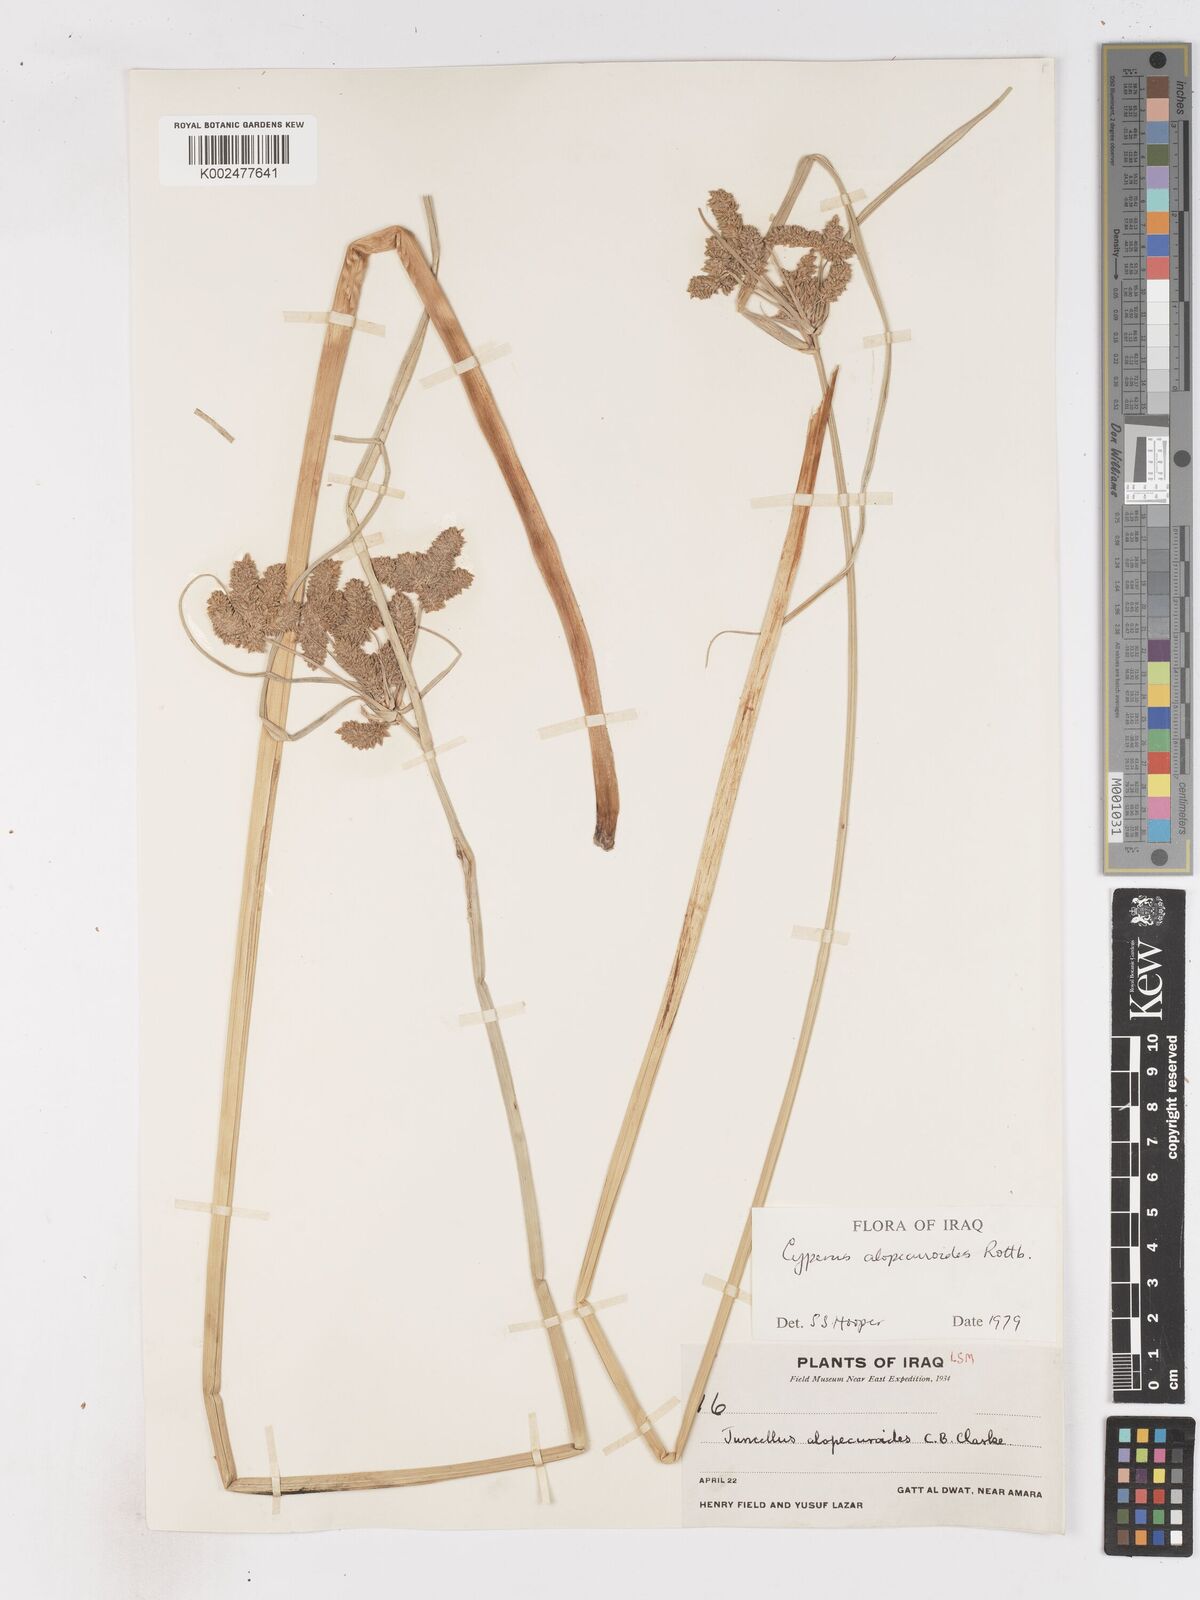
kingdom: Plantae
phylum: Tracheophyta
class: Liliopsida
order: Poales
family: Cyperaceae
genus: Cyperus
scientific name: Cyperus alopecuroides
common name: Foxtail flatsedge
